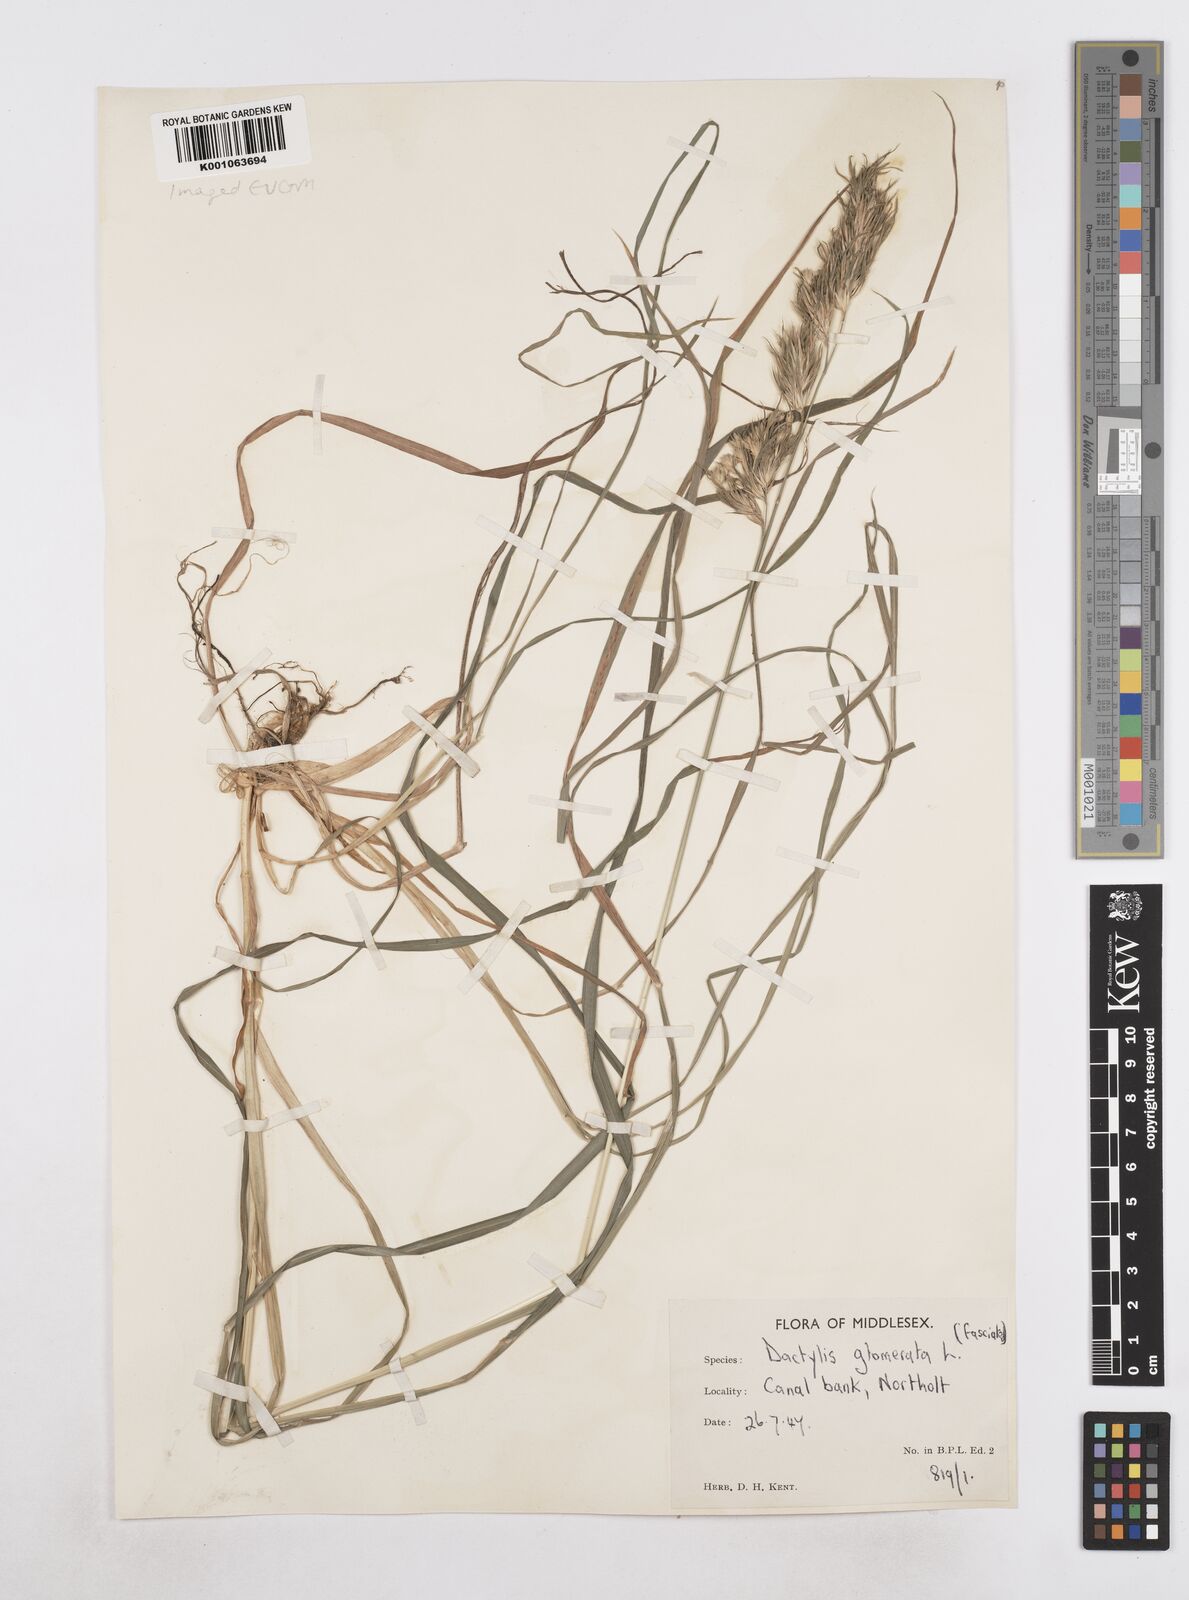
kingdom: Plantae
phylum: Tracheophyta
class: Liliopsida
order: Poales
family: Poaceae
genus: Dactylis
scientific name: Dactylis glomerata
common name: Orchardgrass
